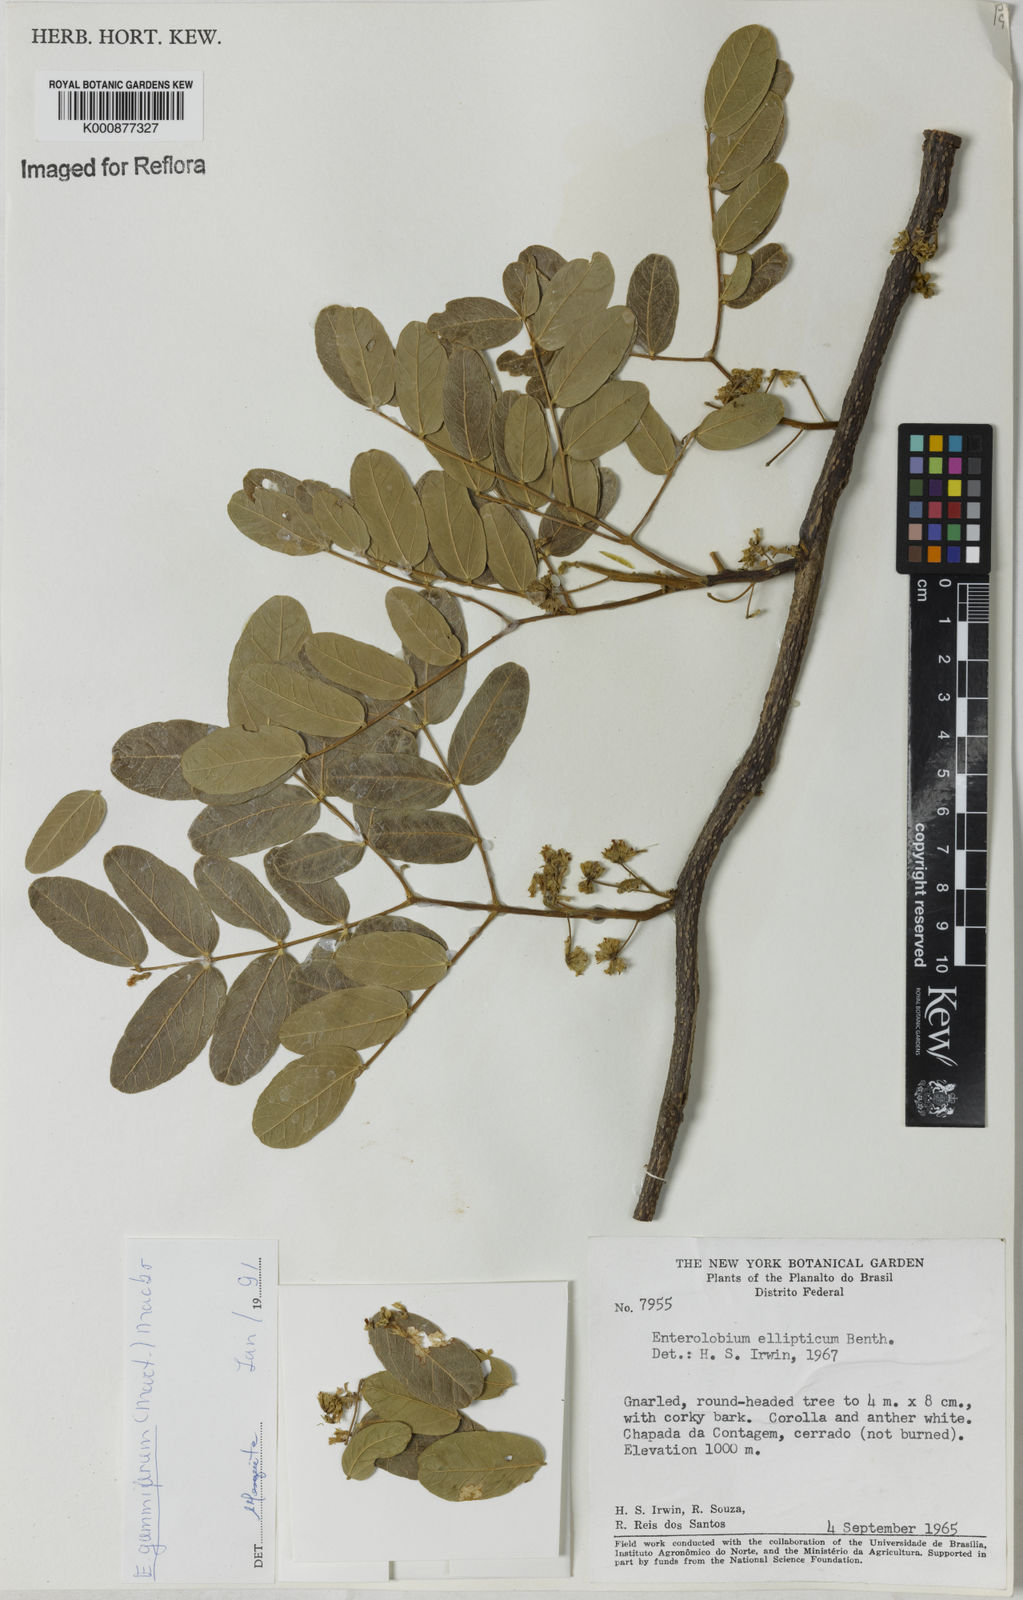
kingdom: Plantae
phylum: Tracheophyta
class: Magnoliopsida
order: Fabales
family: Fabaceae
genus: Enterolobium
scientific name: Enterolobium gummiferum
